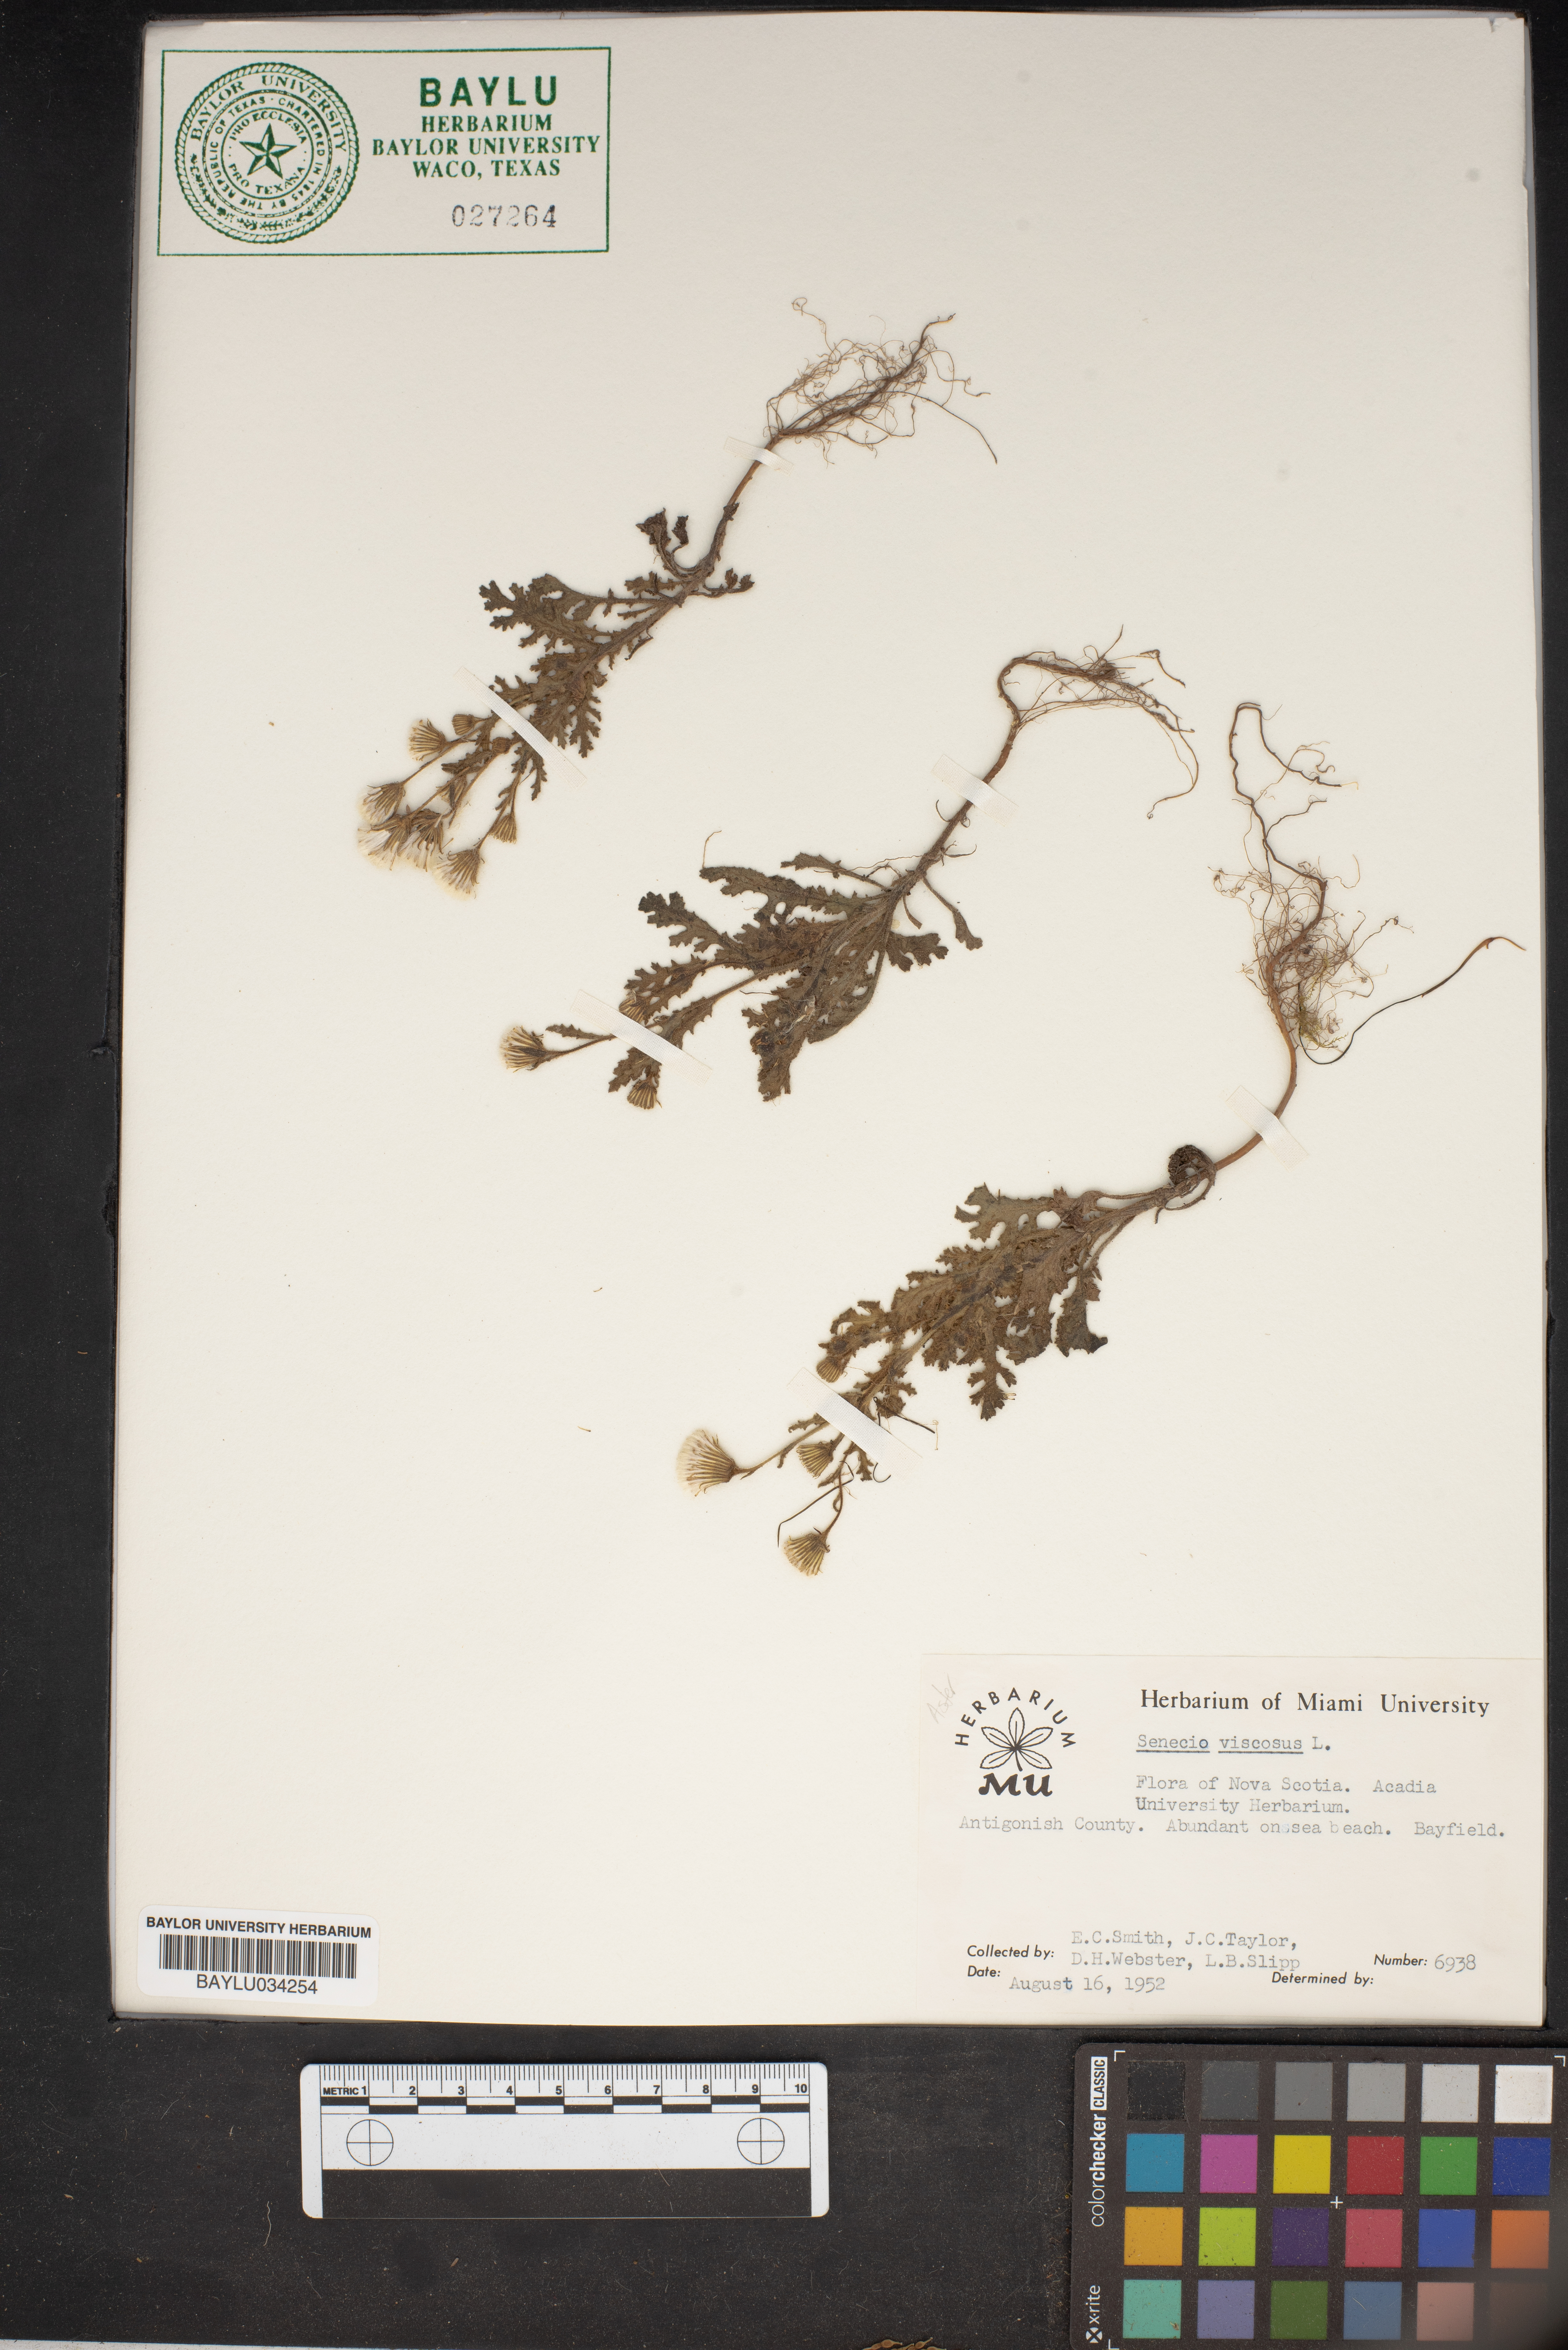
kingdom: Plantae
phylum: Tracheophyta
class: Magnoliopsida
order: Asterales
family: Asteraceae
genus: Senecio
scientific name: Senecio viscosus
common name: Sticky groundsel
